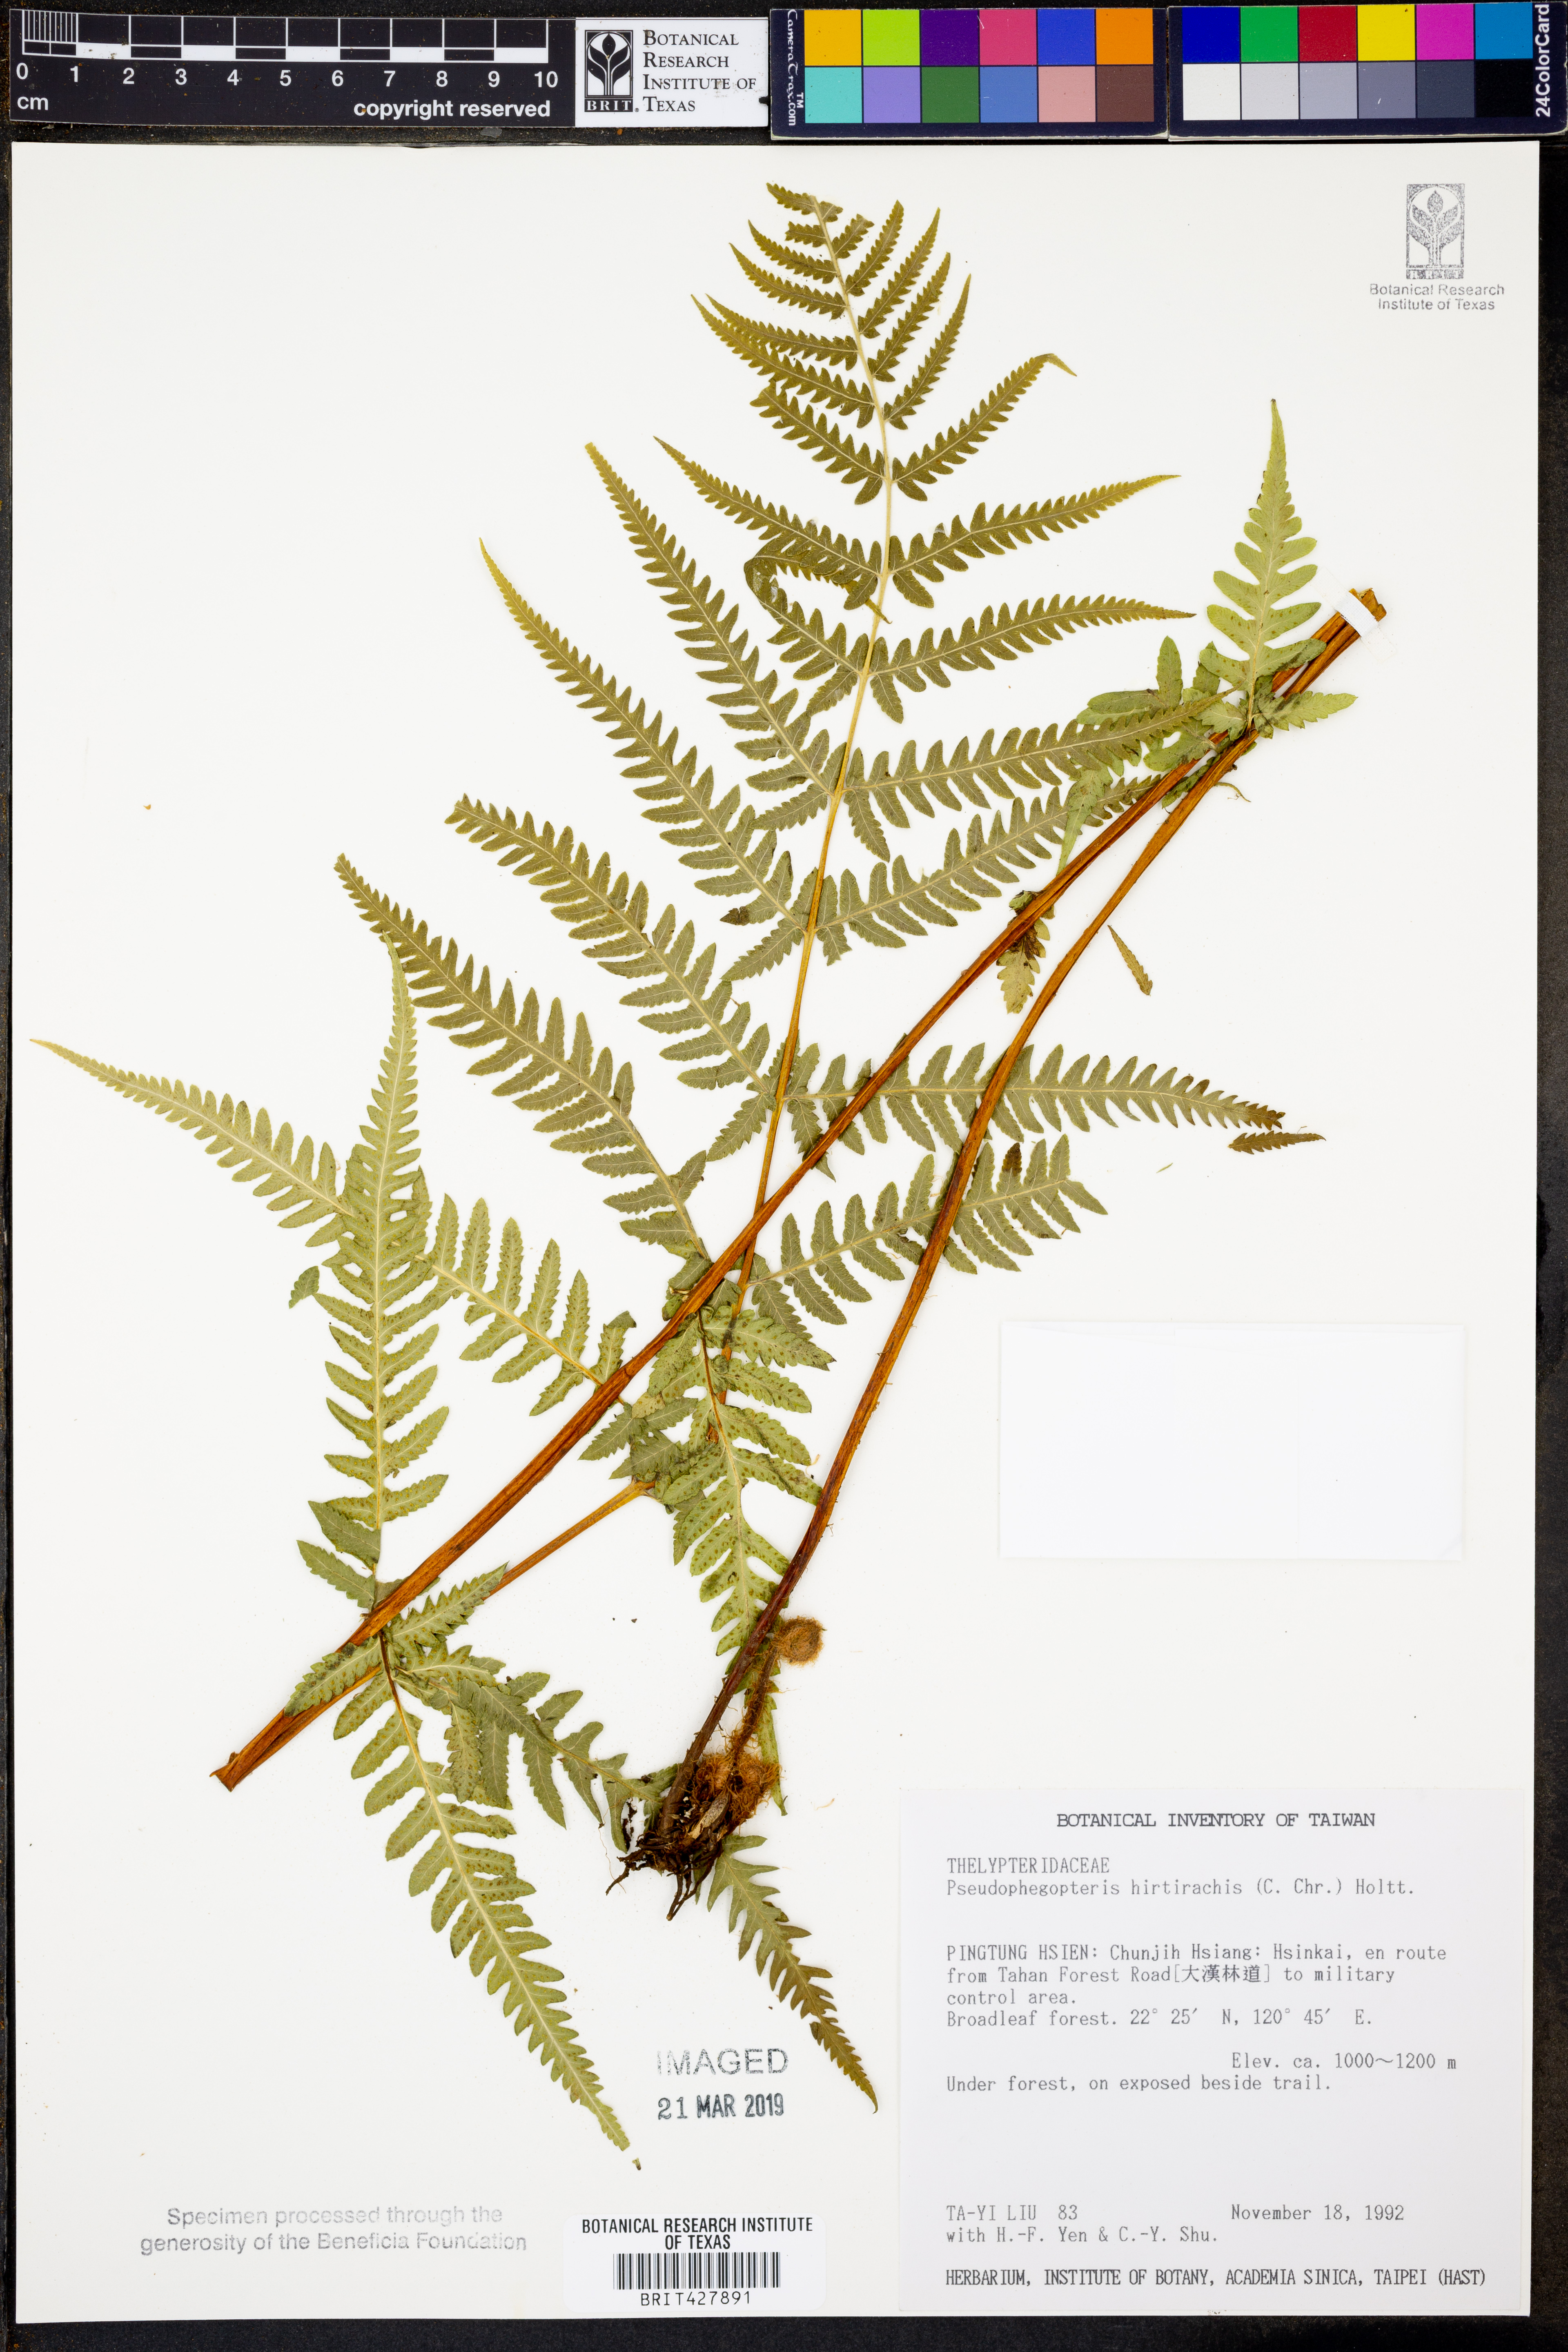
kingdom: Plantae
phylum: Tracheophyta
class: Polypodiopsida
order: Polypodiales
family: Thelypteridaceae
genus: Pseudophegopteris
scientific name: Pseudophegopteris hirtirachis
